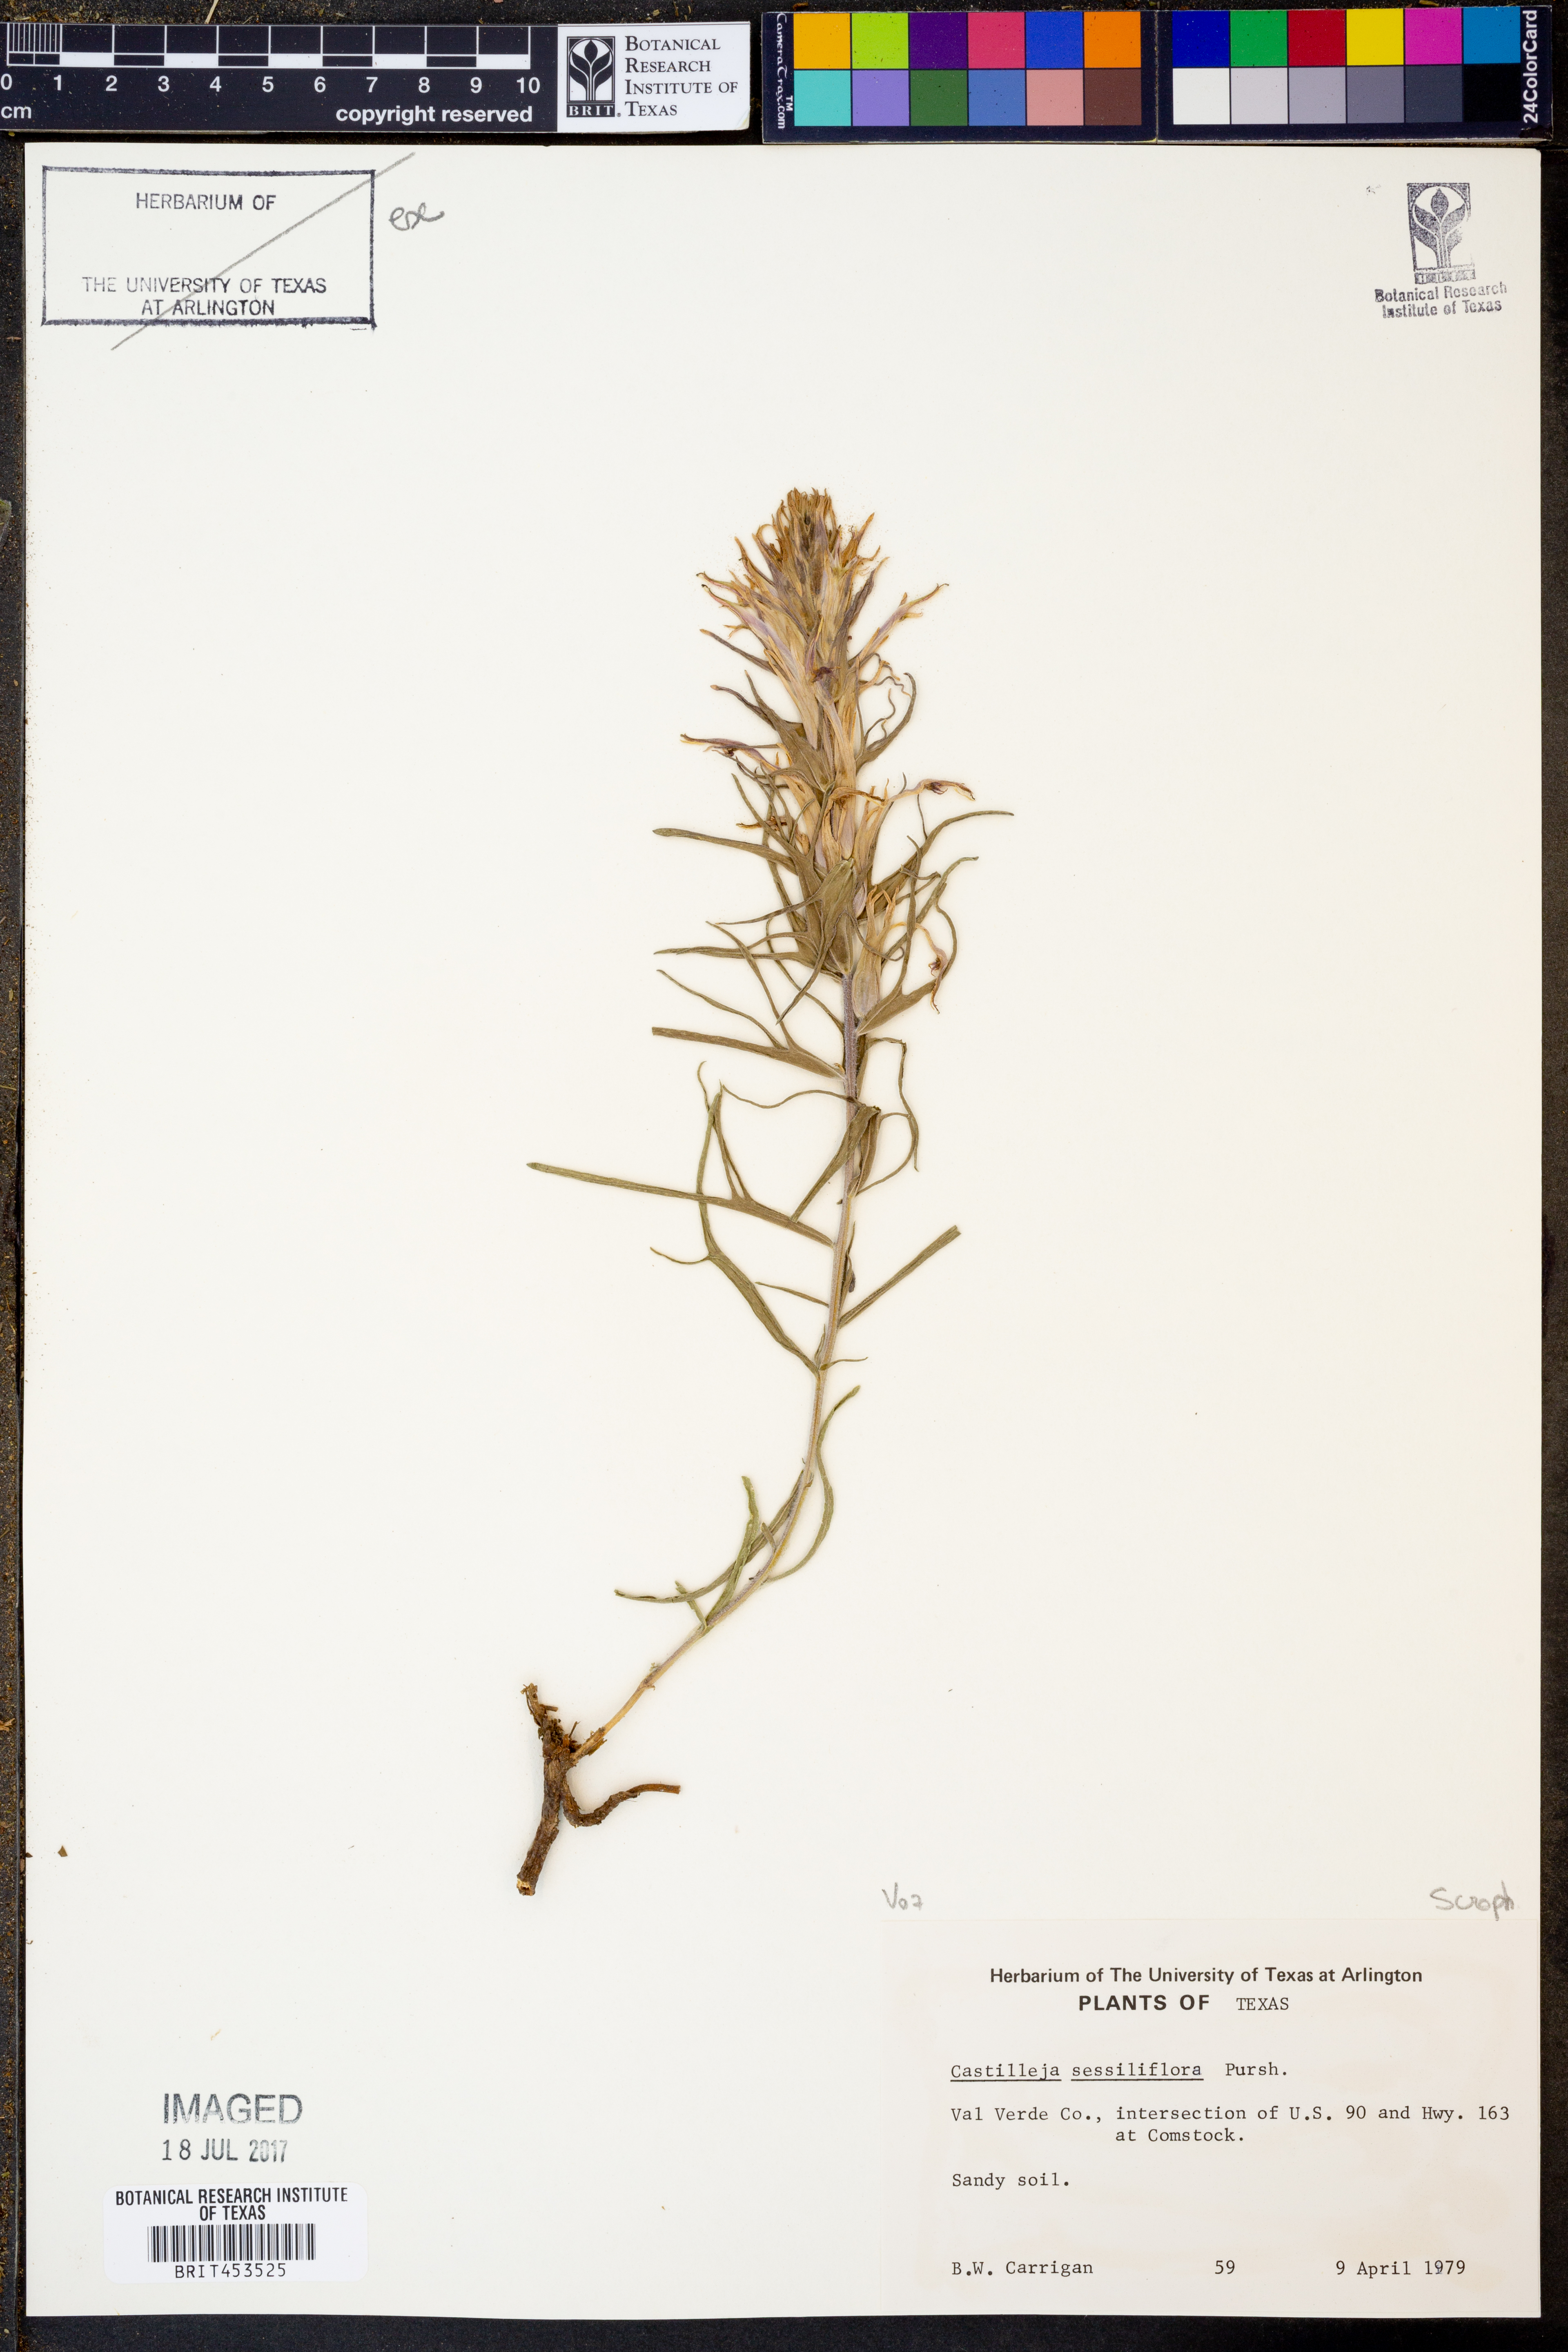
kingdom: Plantae
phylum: Tracheophyta
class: Magnoliopsida
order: Lamiales
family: Orobanchaceae
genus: Castilleja
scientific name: Castilleja sessiliflora
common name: Downy paintbrush
